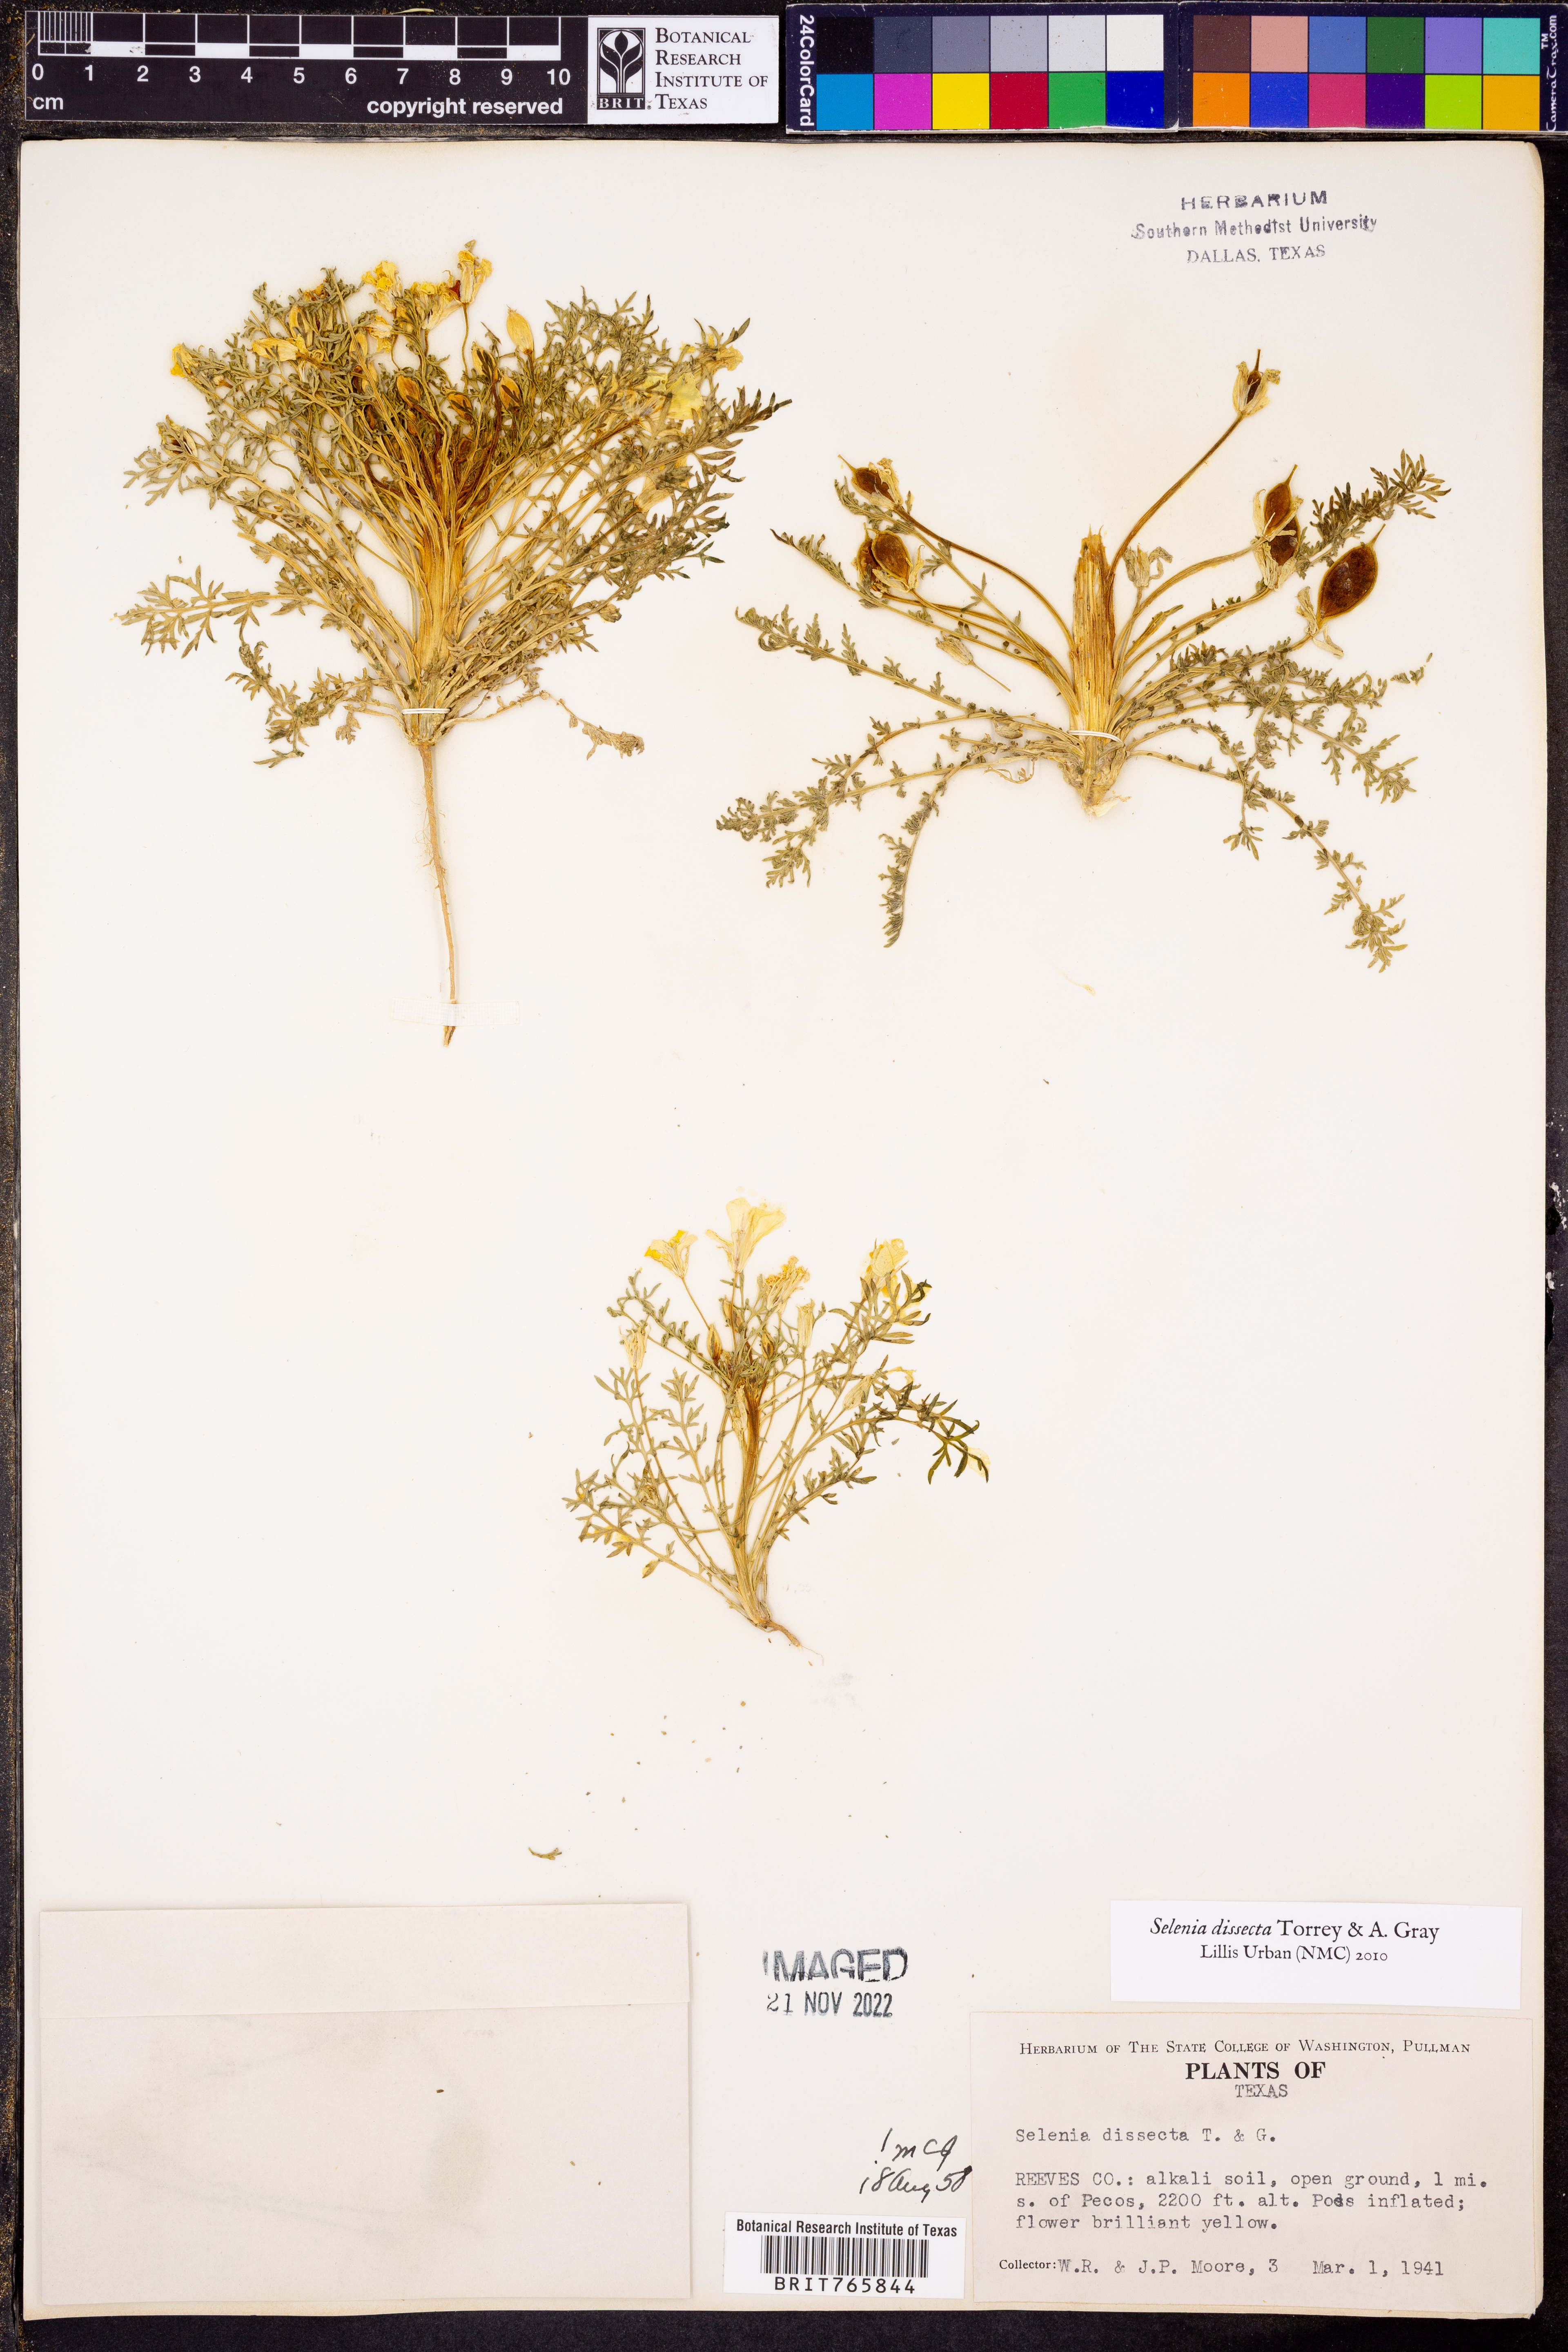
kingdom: Plantae
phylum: Tracheophyta
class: Magnoliopsida
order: Brassicales
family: Brassicaceae
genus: Selenia
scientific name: Selenia dissecta
